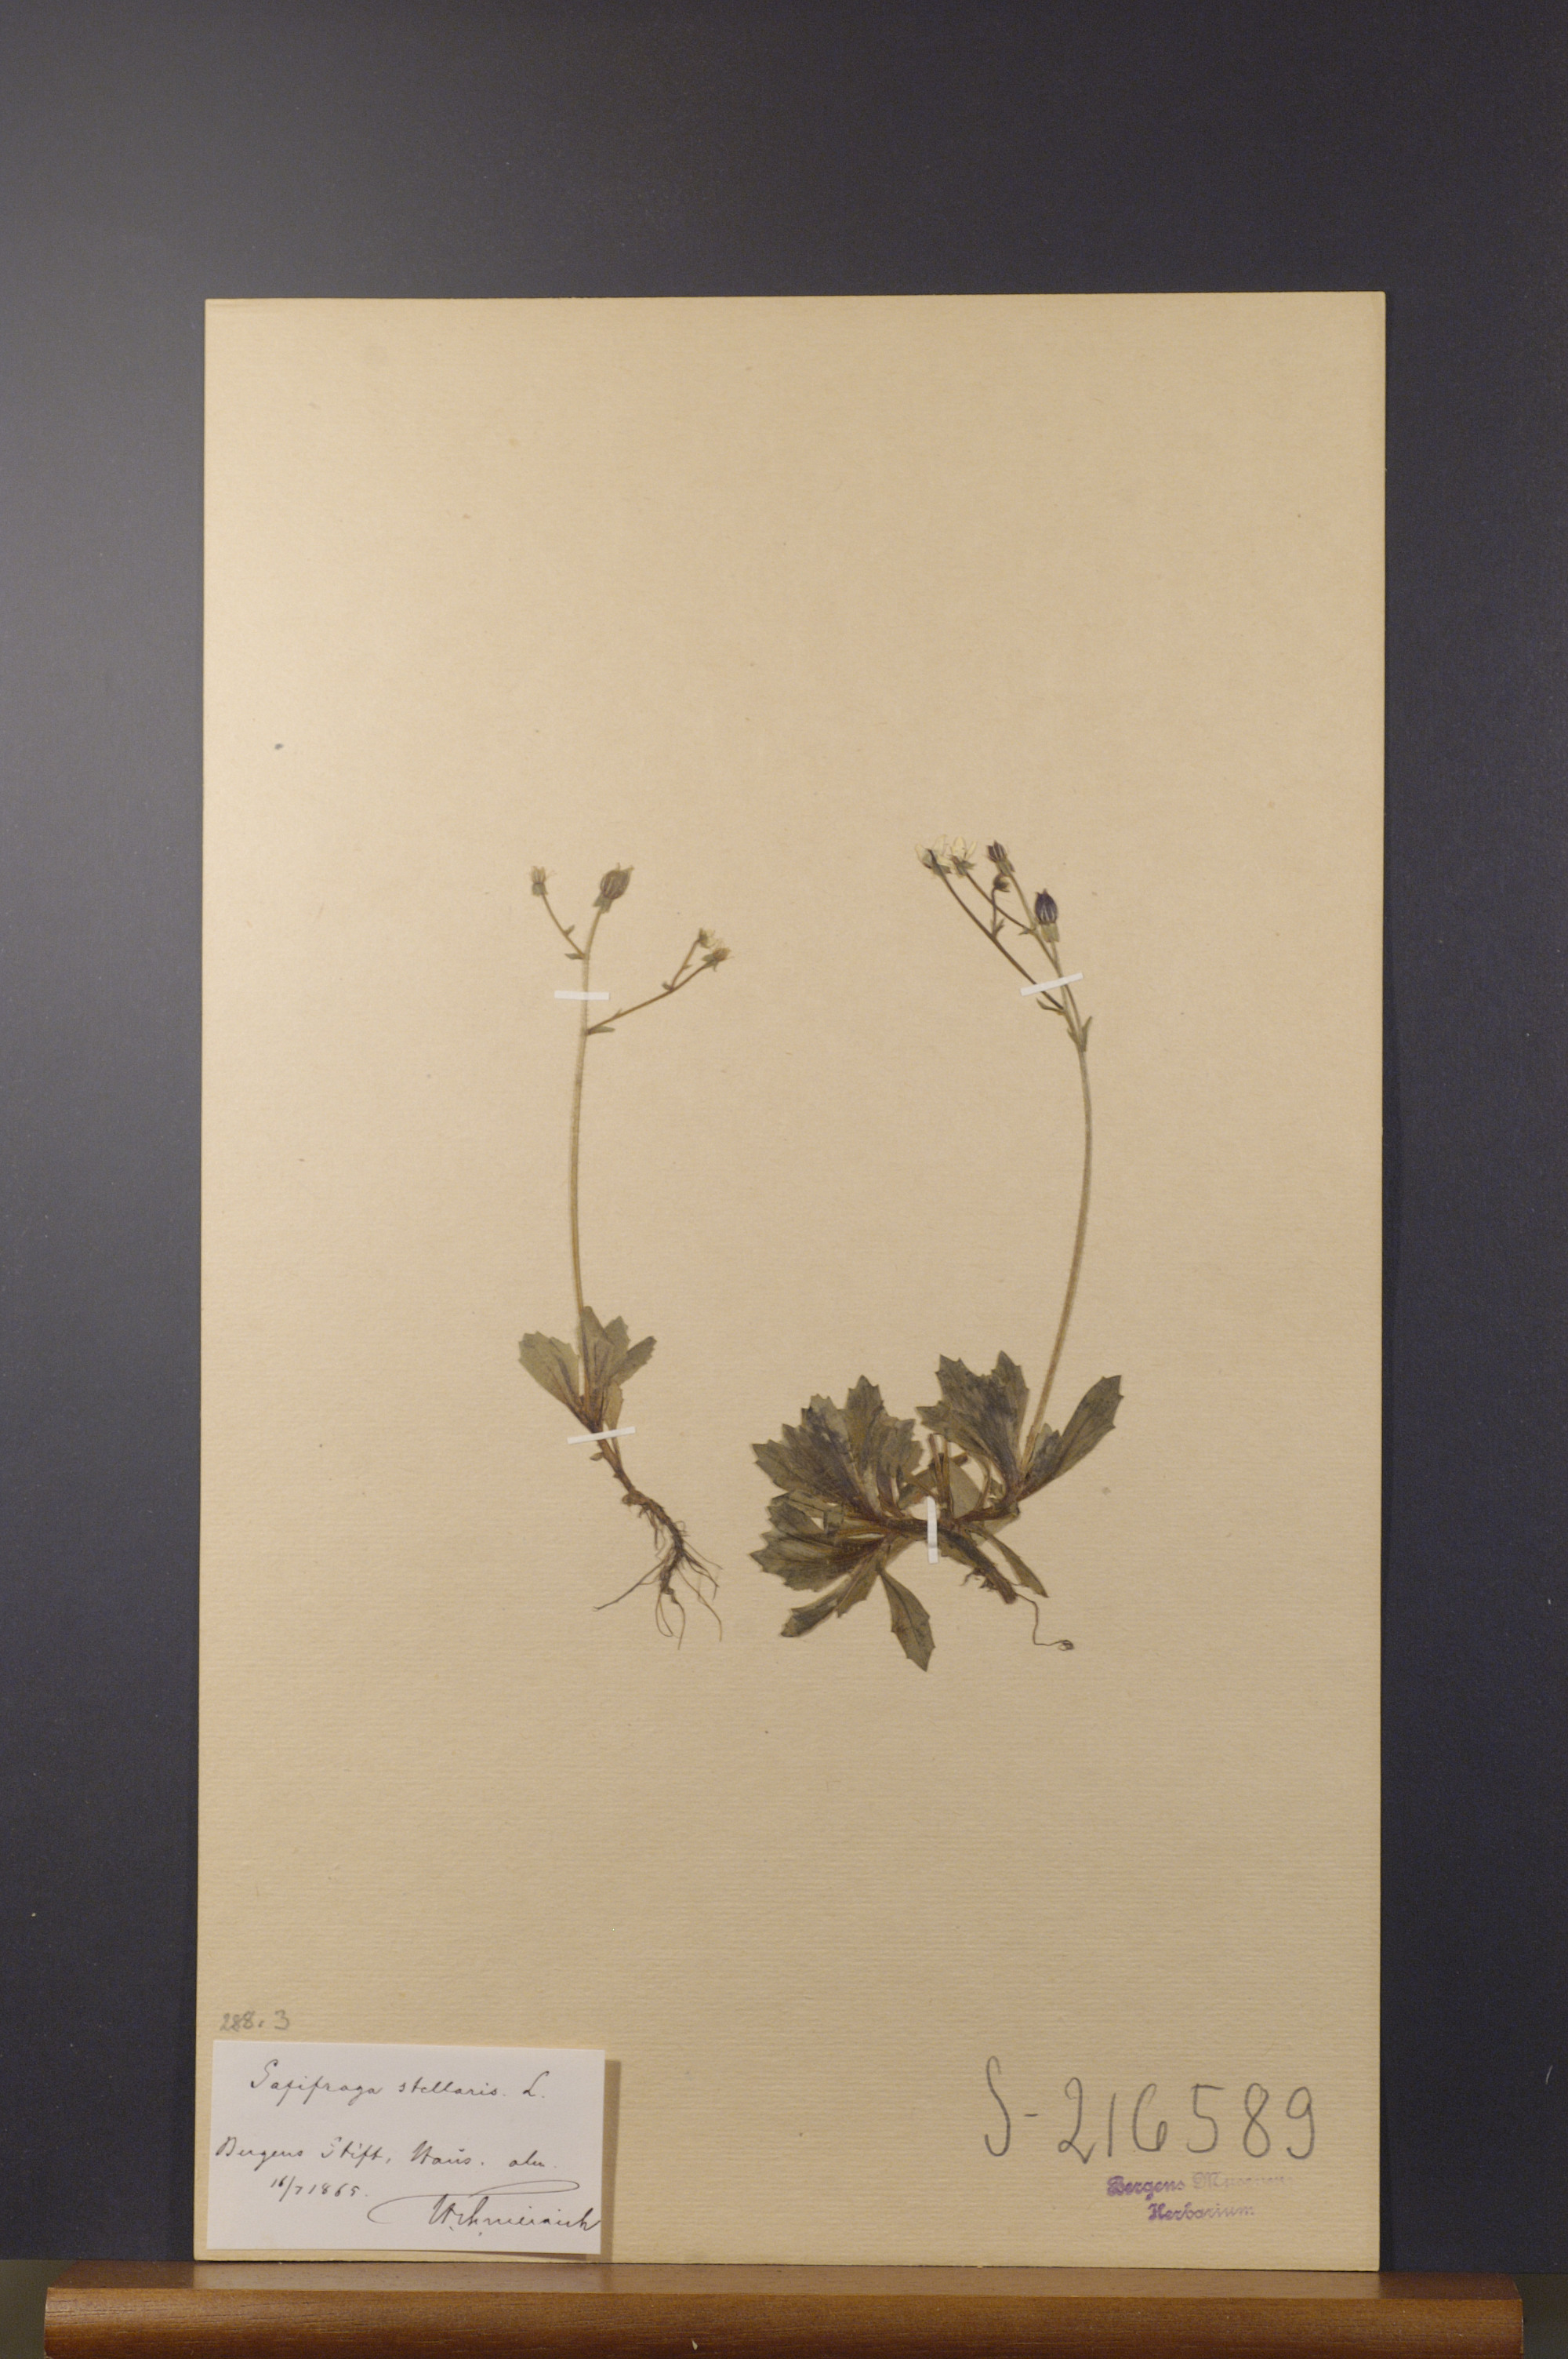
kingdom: Plantae
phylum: Tracheophyta
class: Magnoliopsida
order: Saxifragales
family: Saxifragaceae
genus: Micranthes
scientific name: Micranthes stellaris
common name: Starry saxifrage
